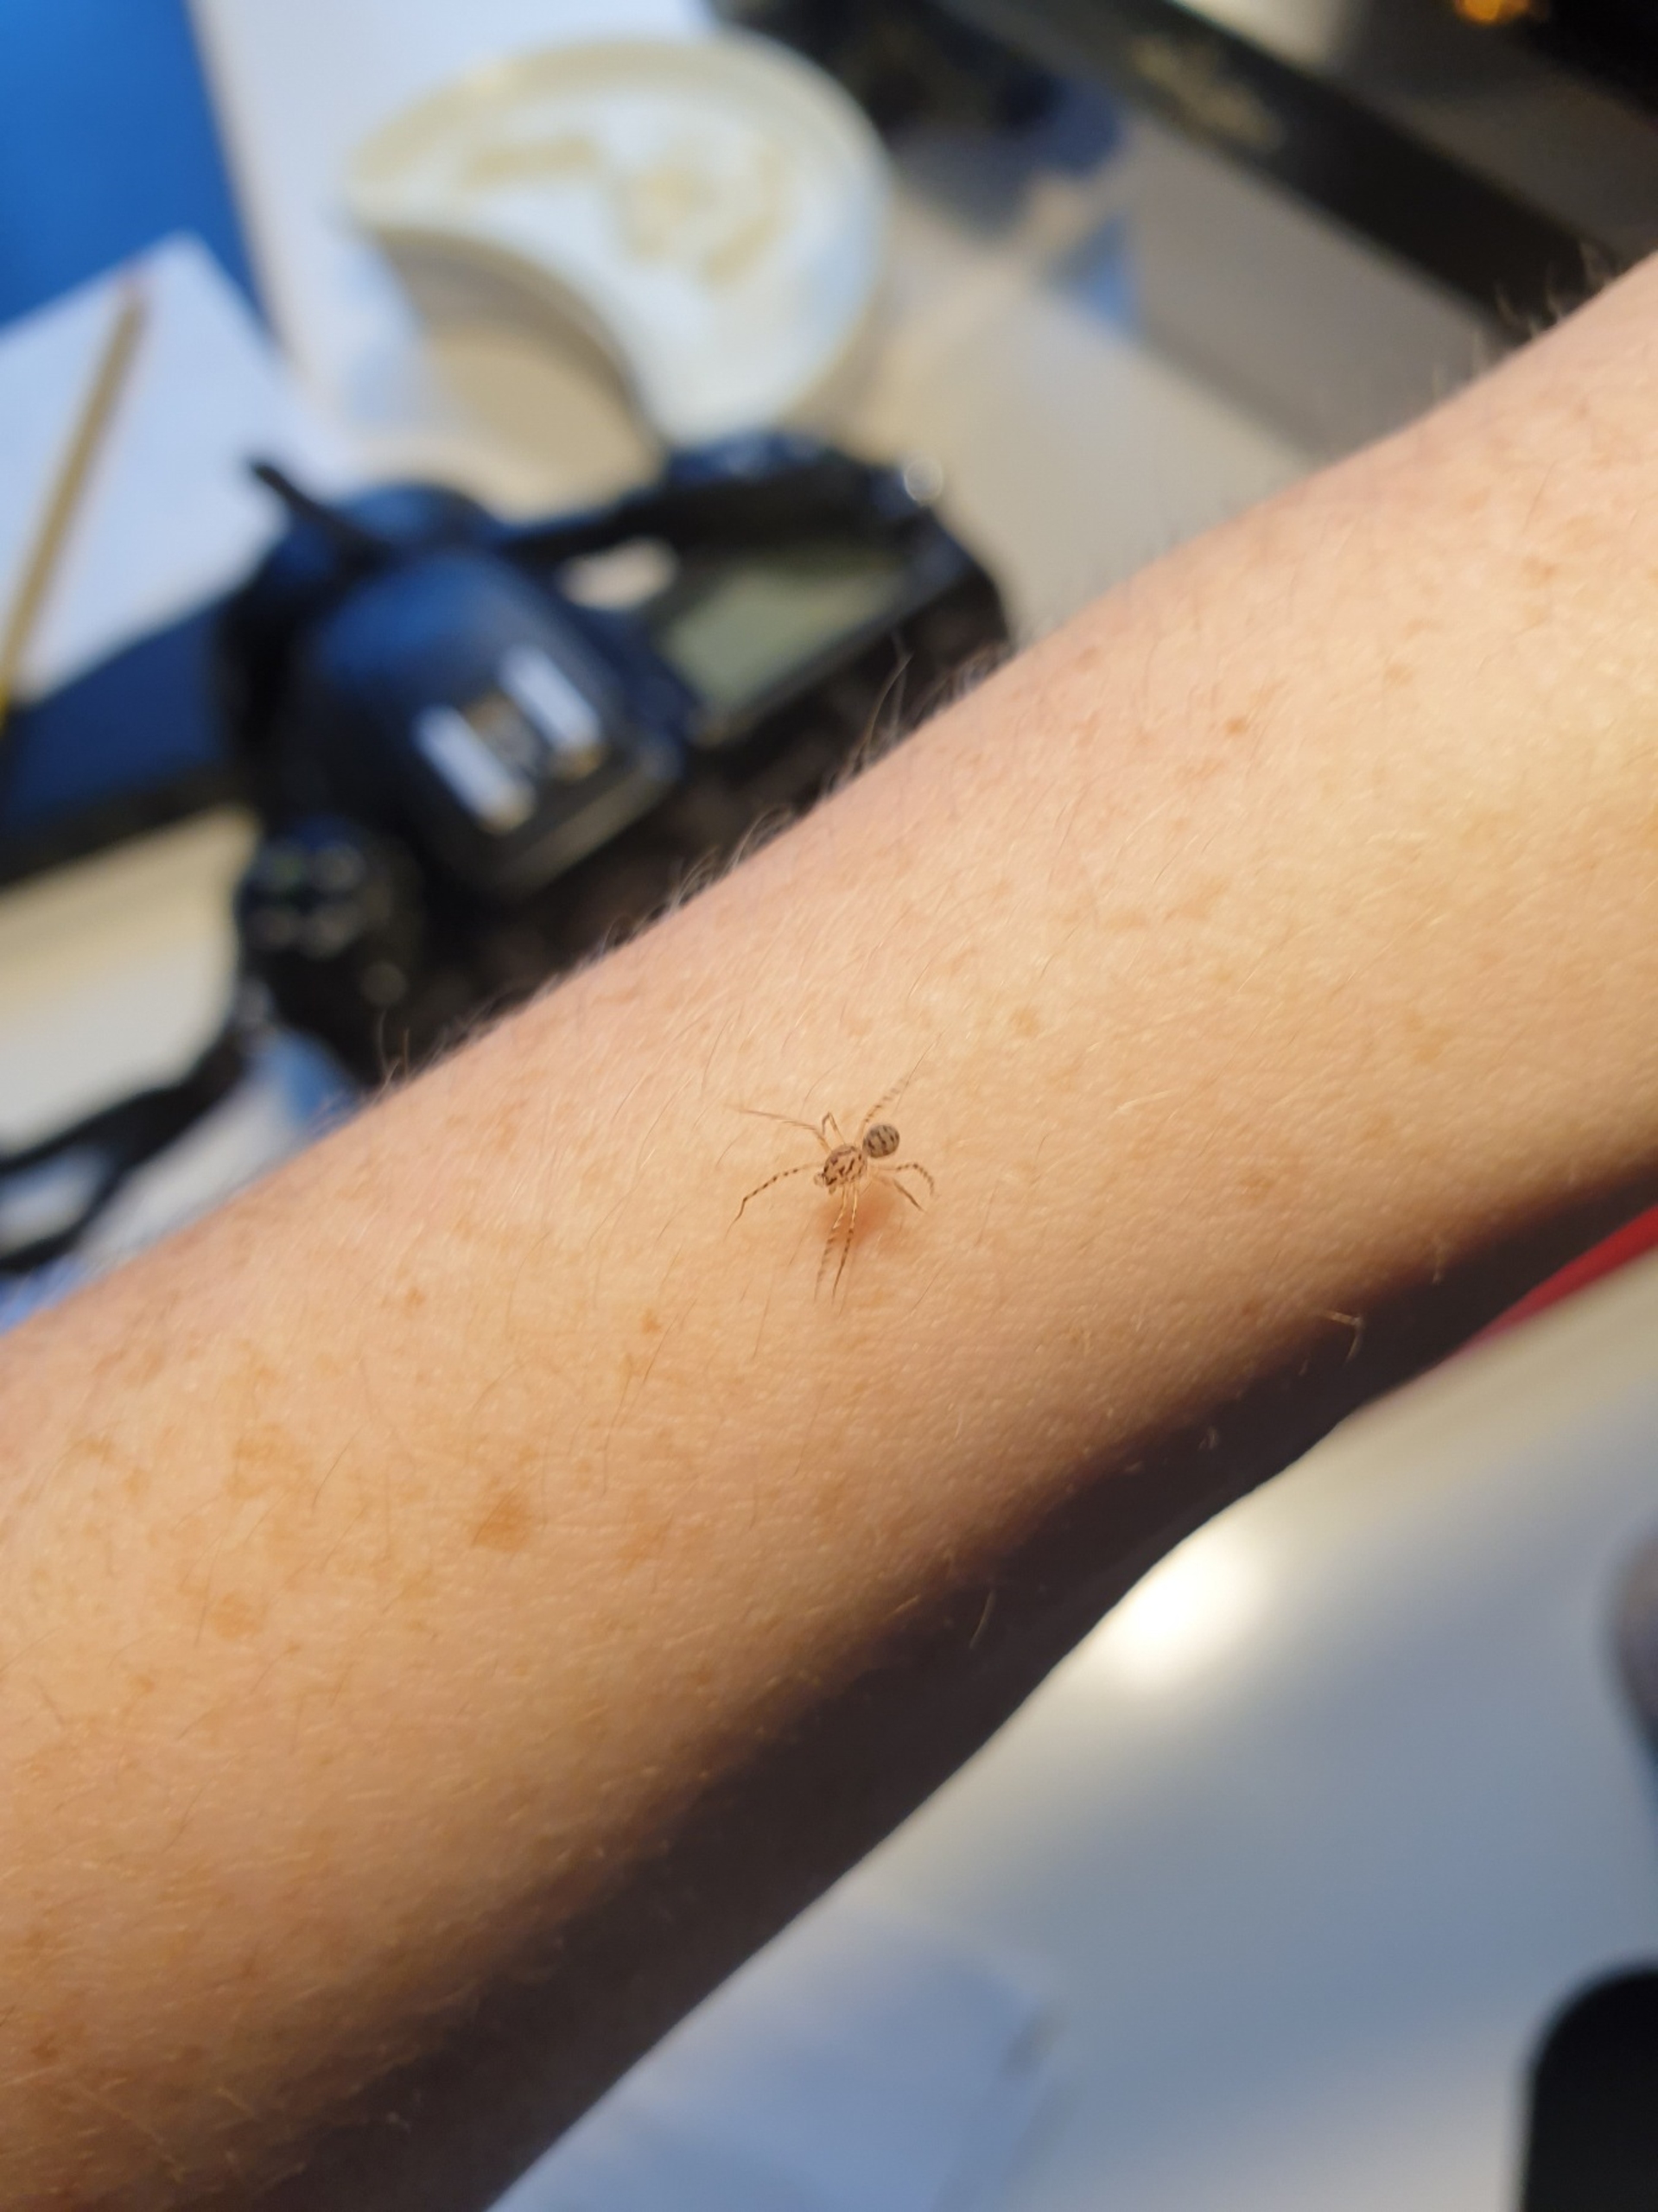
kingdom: Animalia
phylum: Arthropoda
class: Arachnida
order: Araneae
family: Scytodidae
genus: Scytodes
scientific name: Scytodes thoracica
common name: Spytteedderkop
